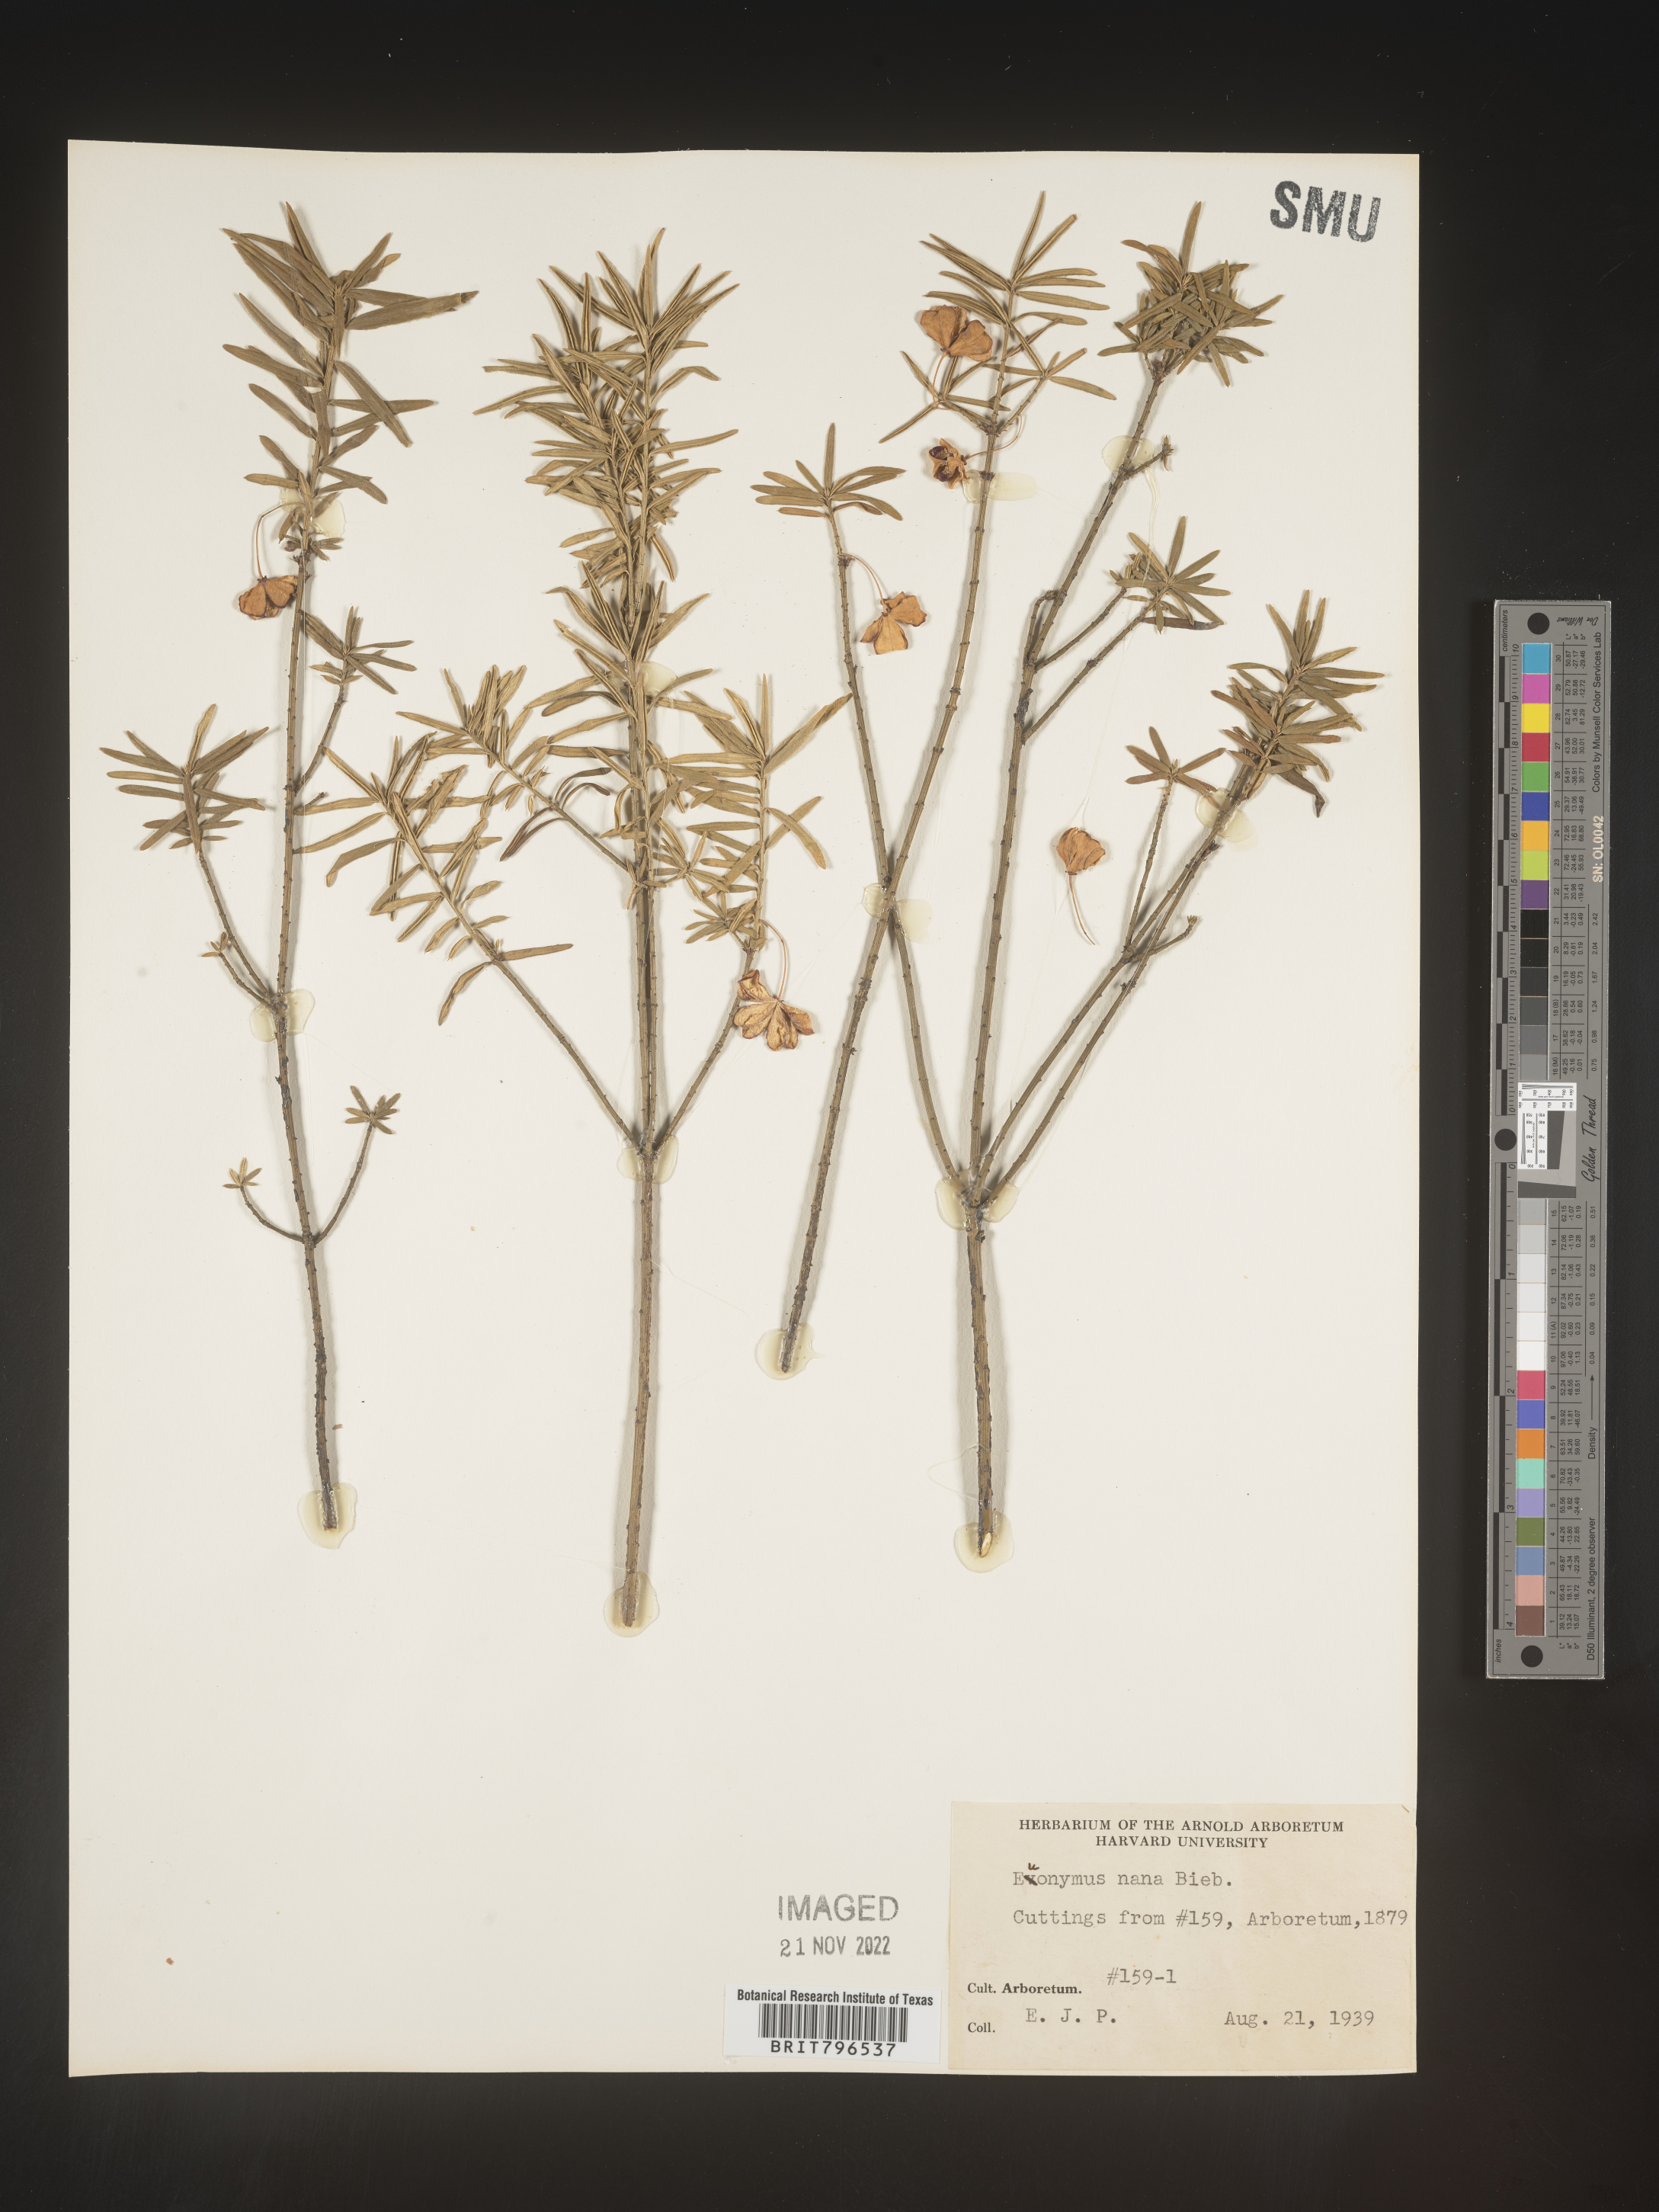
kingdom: Plantae
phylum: Tracheophyta
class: Magnoliopsida
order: Celastrales
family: Celastraceae
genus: Euonymus
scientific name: Euonymus
